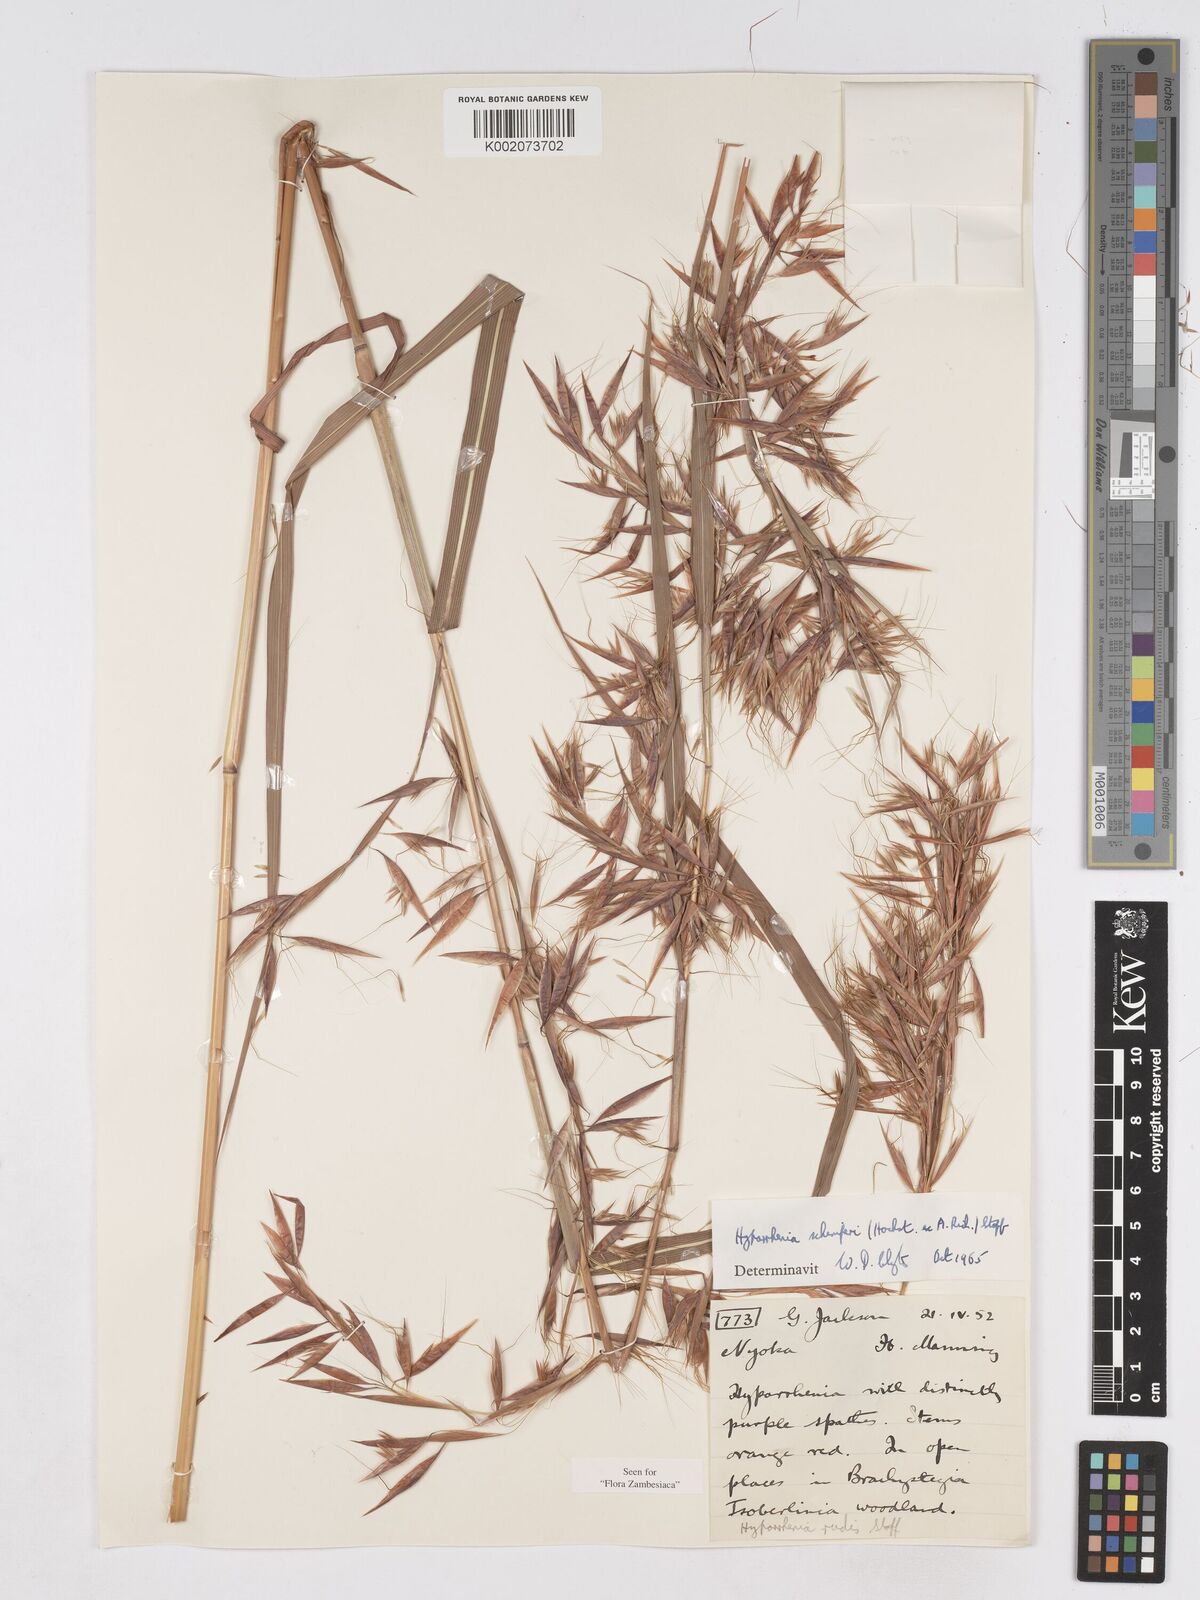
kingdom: Plantae
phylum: Tracheophyta
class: Liliopsida
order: Poales
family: Poaceae
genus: Hyparrhenia
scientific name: Hyparrhenia schimperi
